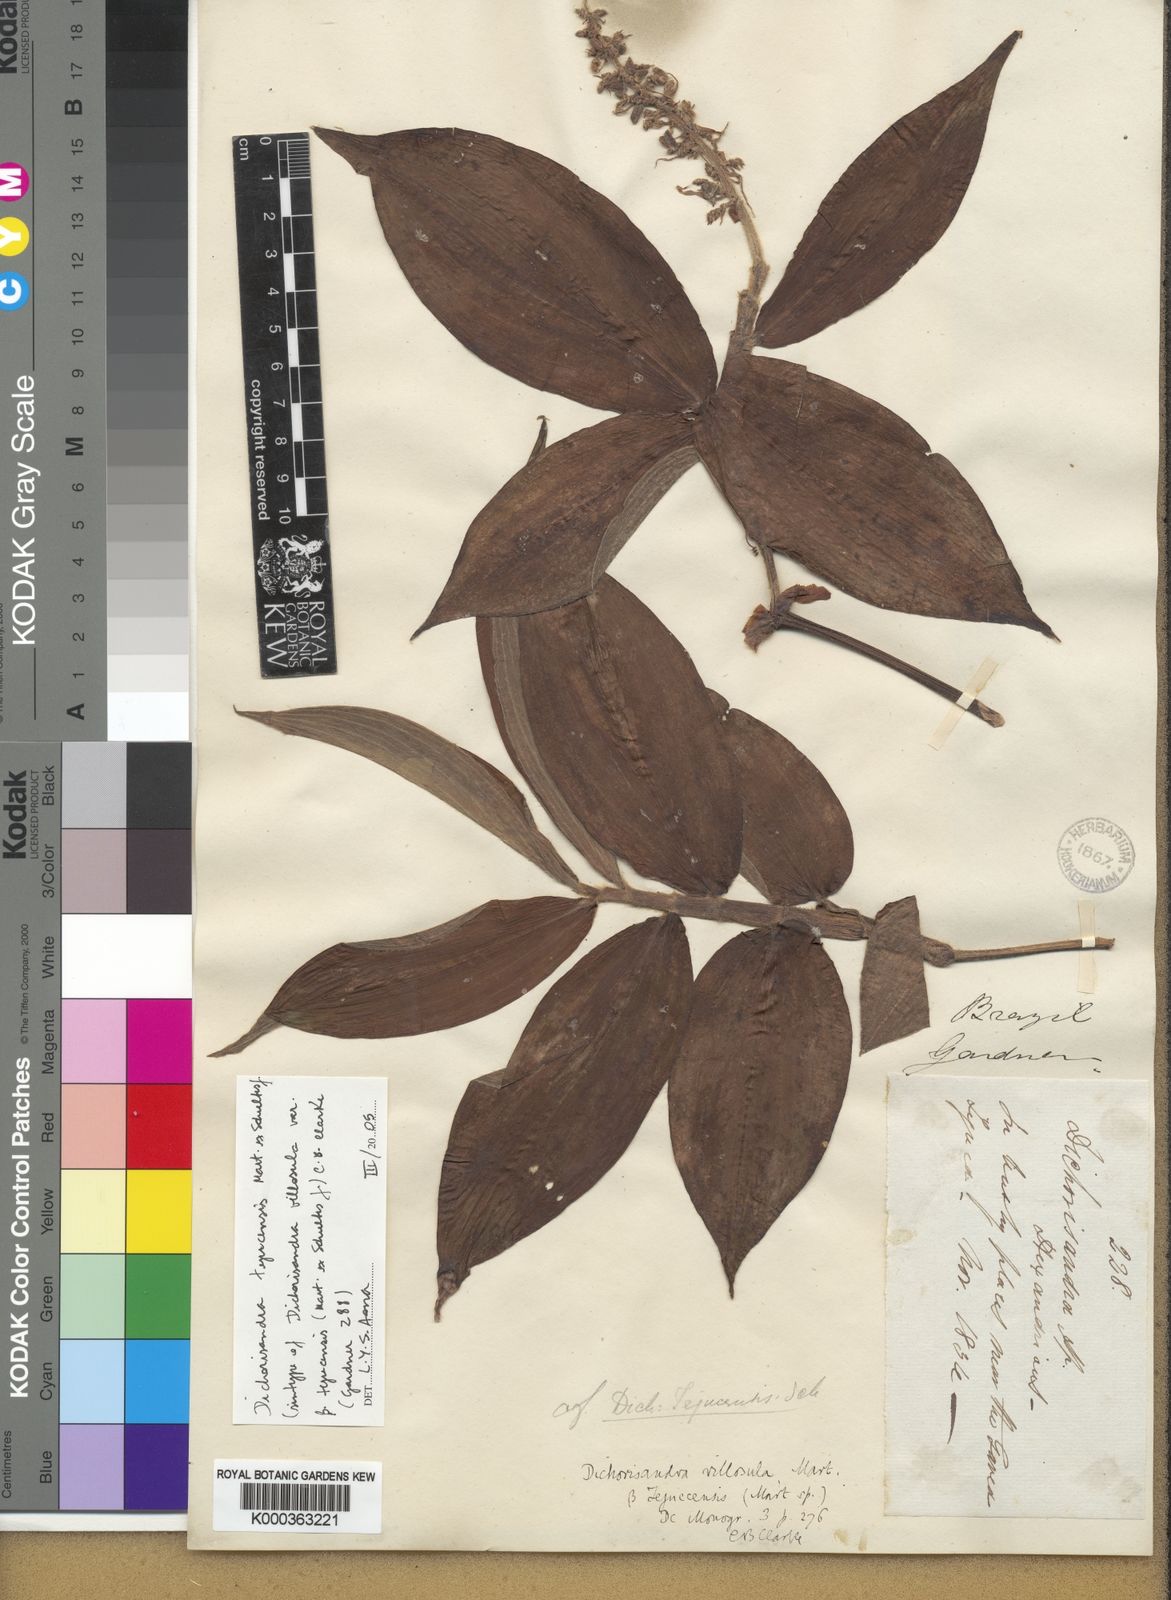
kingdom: Plantae
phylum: Tracheophyta
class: Liliopsida
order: Commelinales
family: Commelinaceae
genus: Dichorisandra
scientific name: Dichorisandra tejucensis
